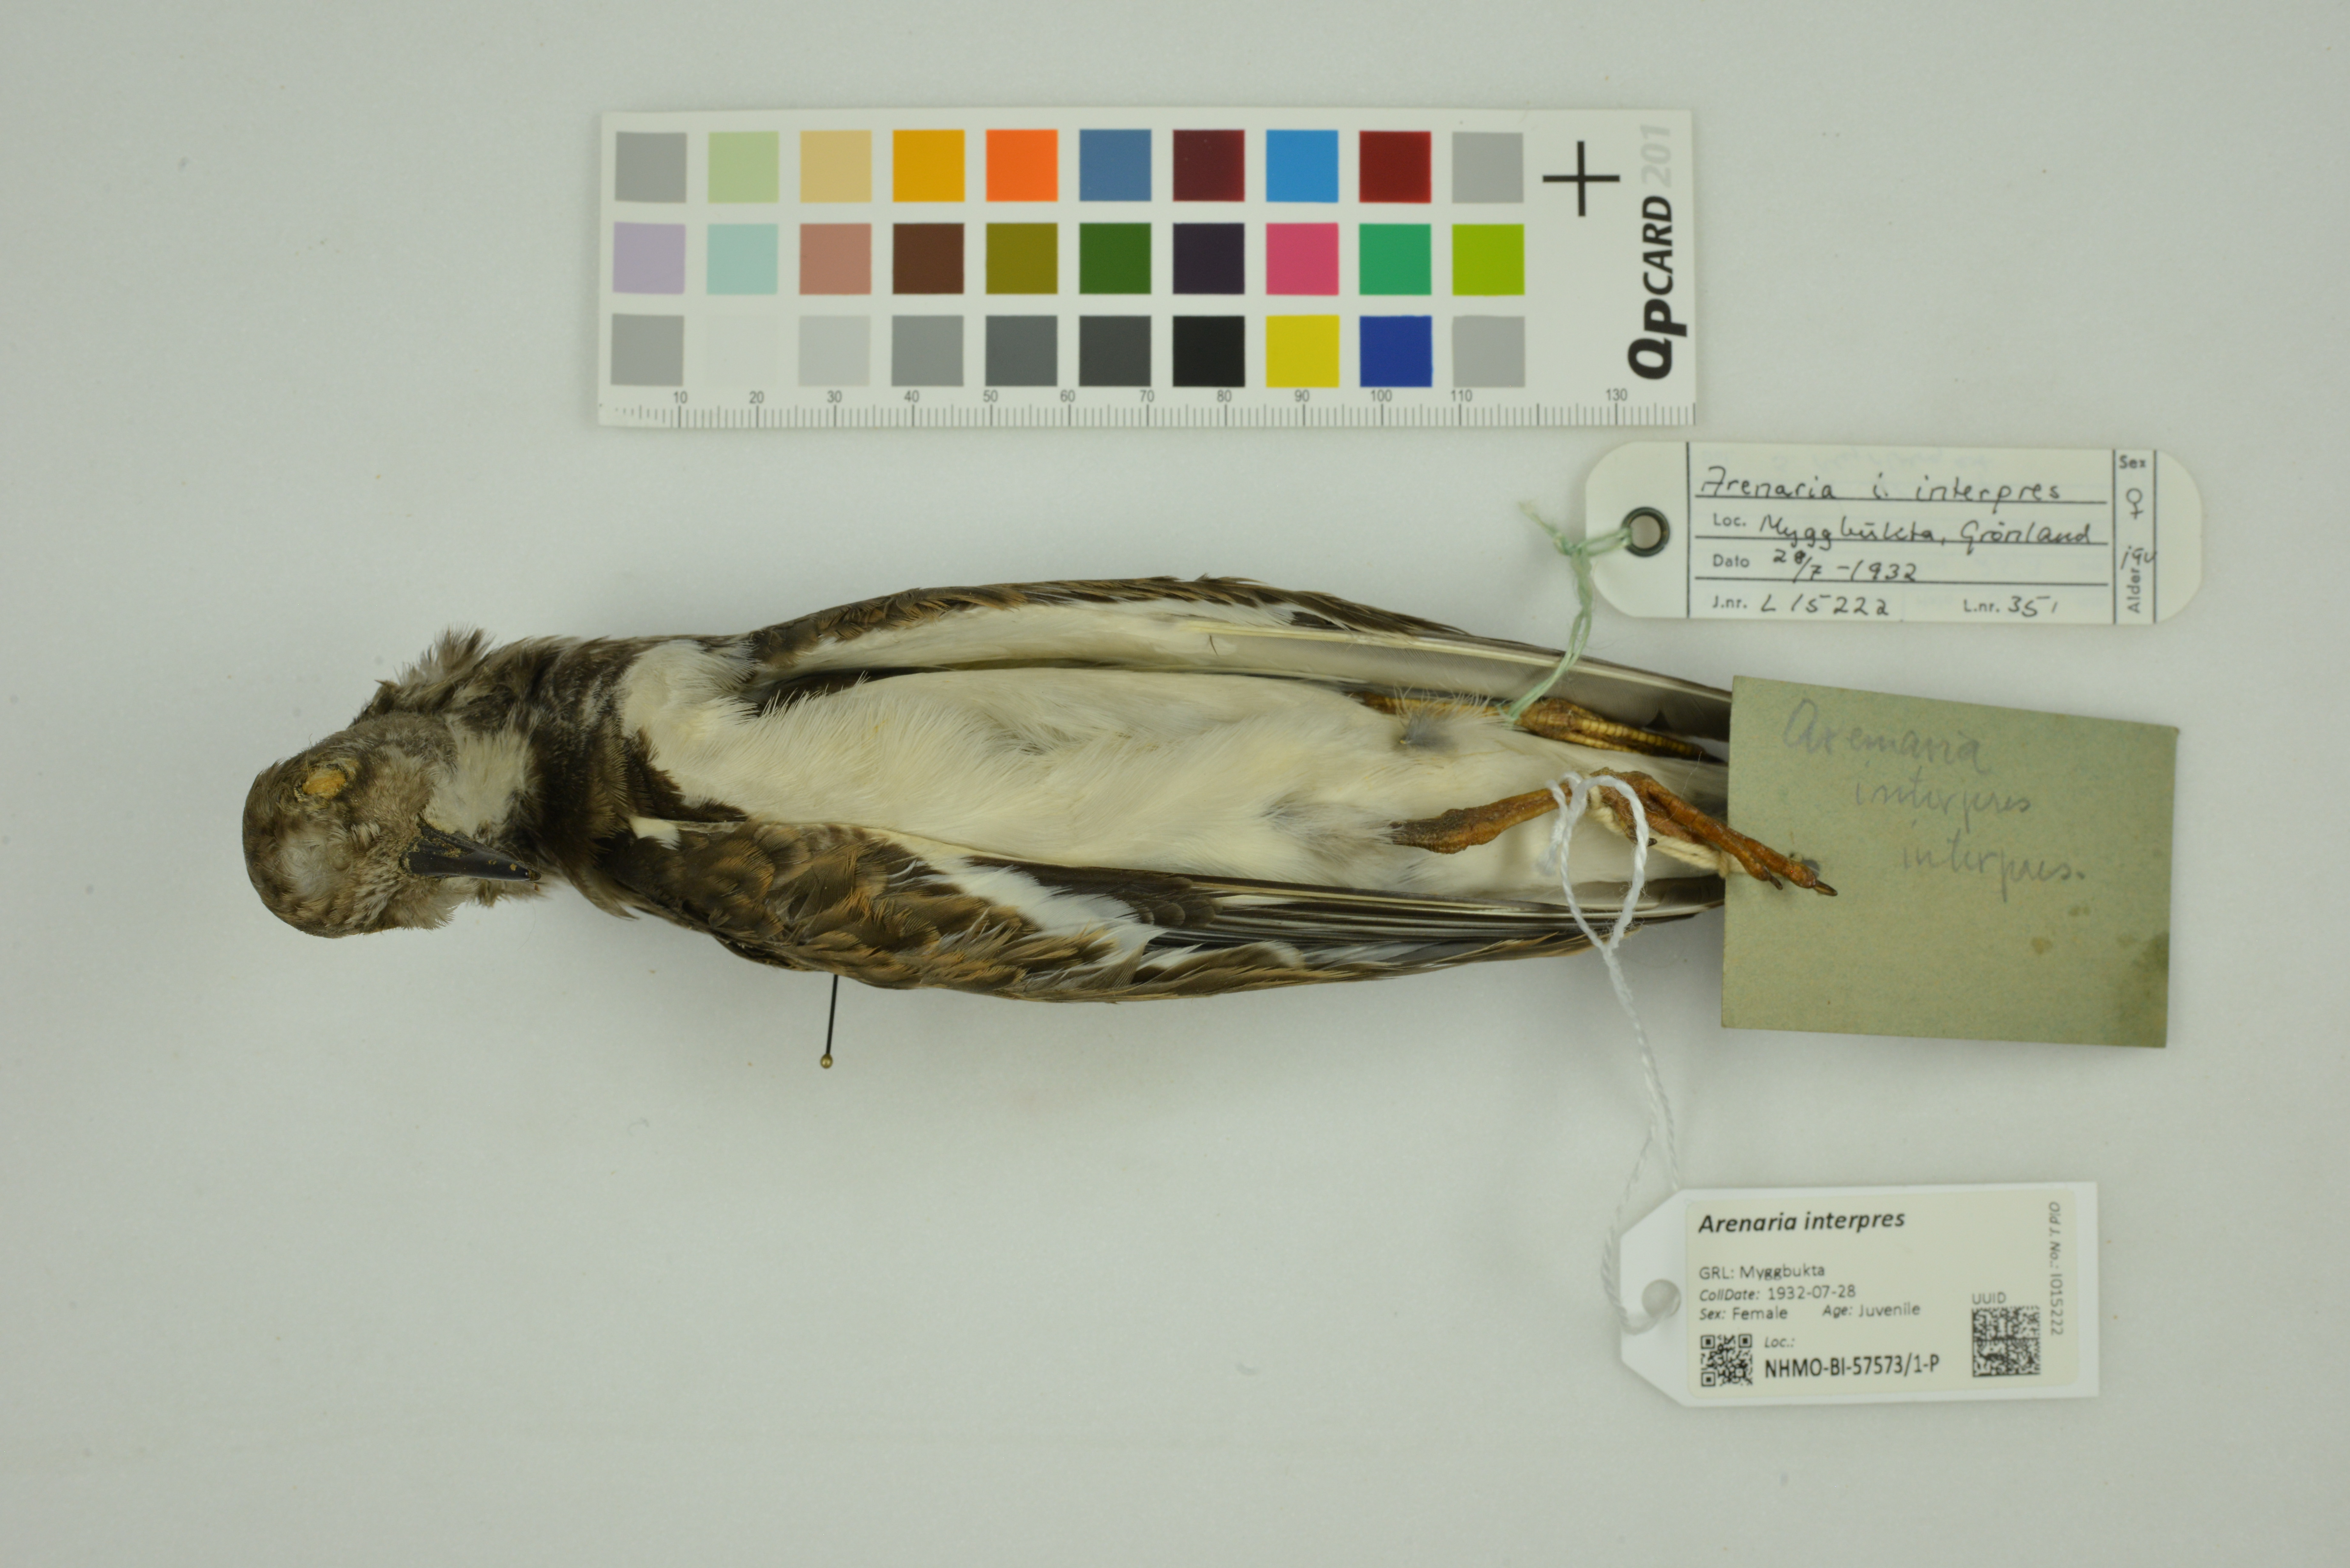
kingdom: Animalia
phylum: Chordata
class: Aves
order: Charadriiformes
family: Scolopacidae
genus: Arenaria
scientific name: Arenaria interpres
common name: Ruddy turnstone
